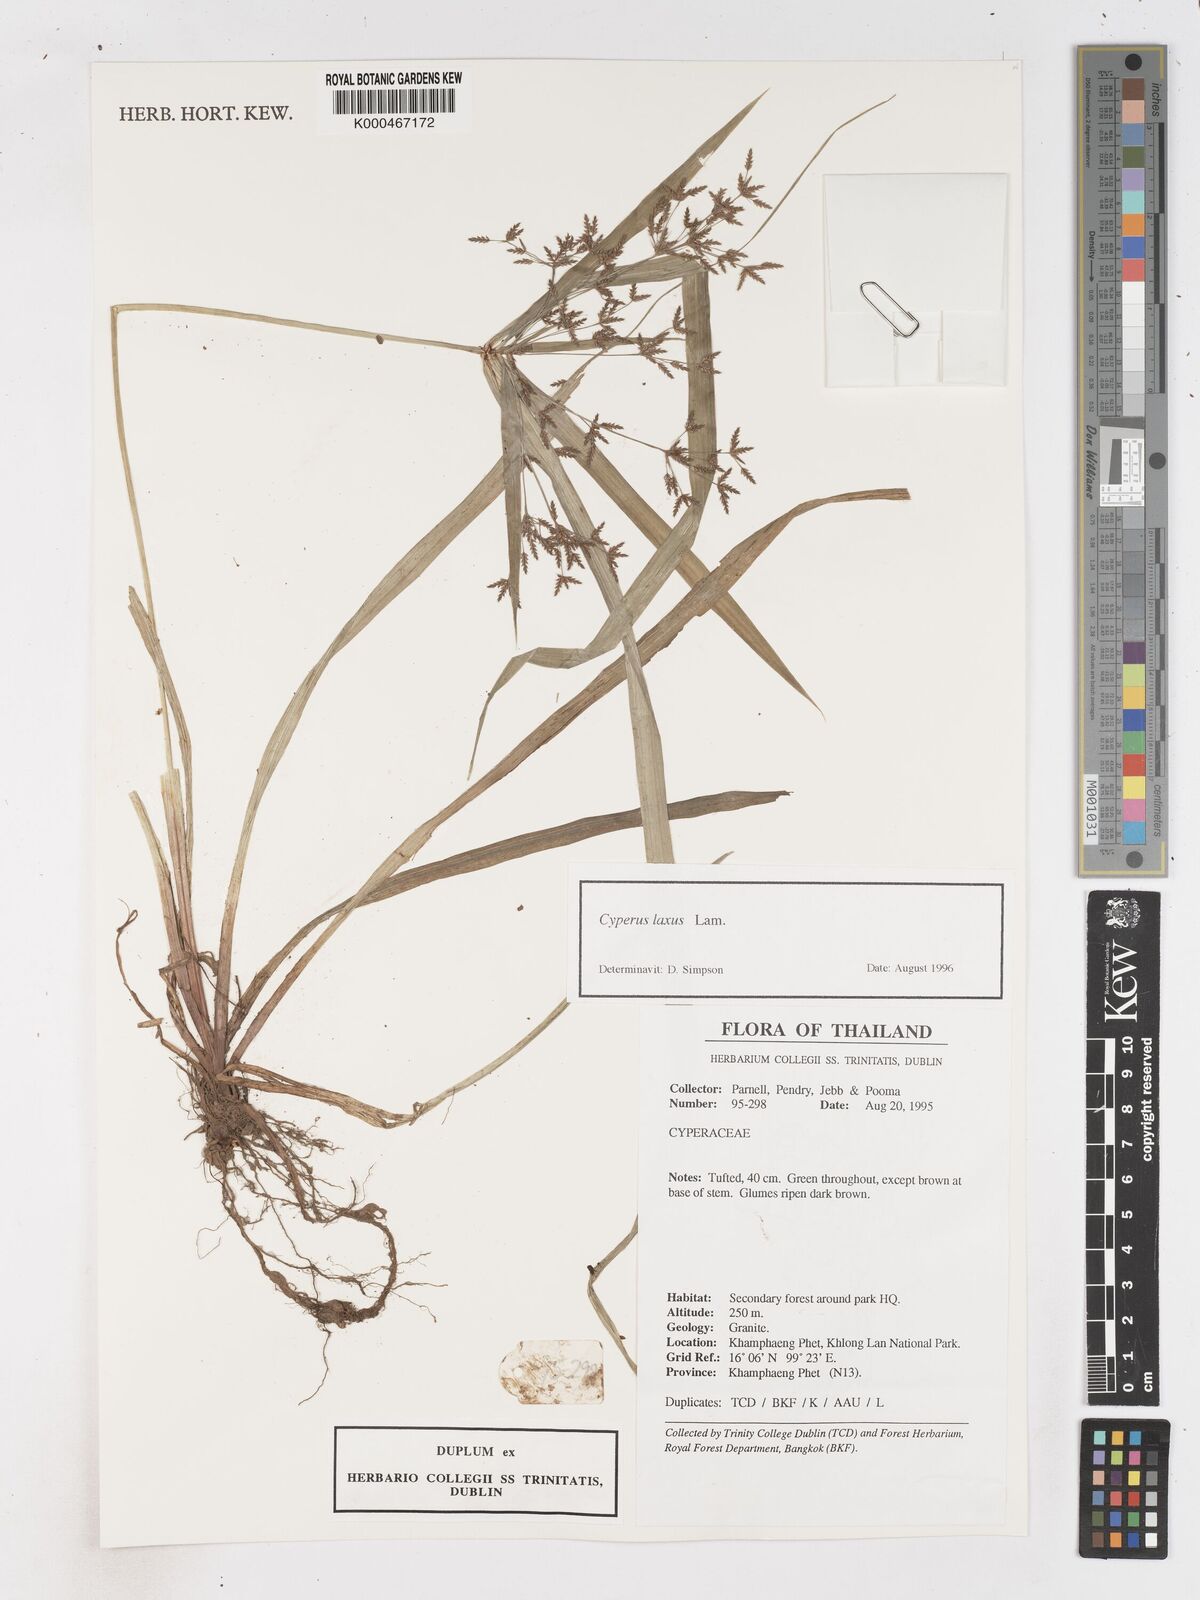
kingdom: Plantae
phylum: Tracheophyta
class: Liliopsida
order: Poales
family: Cyperaceae
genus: Cyperus
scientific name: Cyperus diffusus
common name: Dwarf umbrella grass
